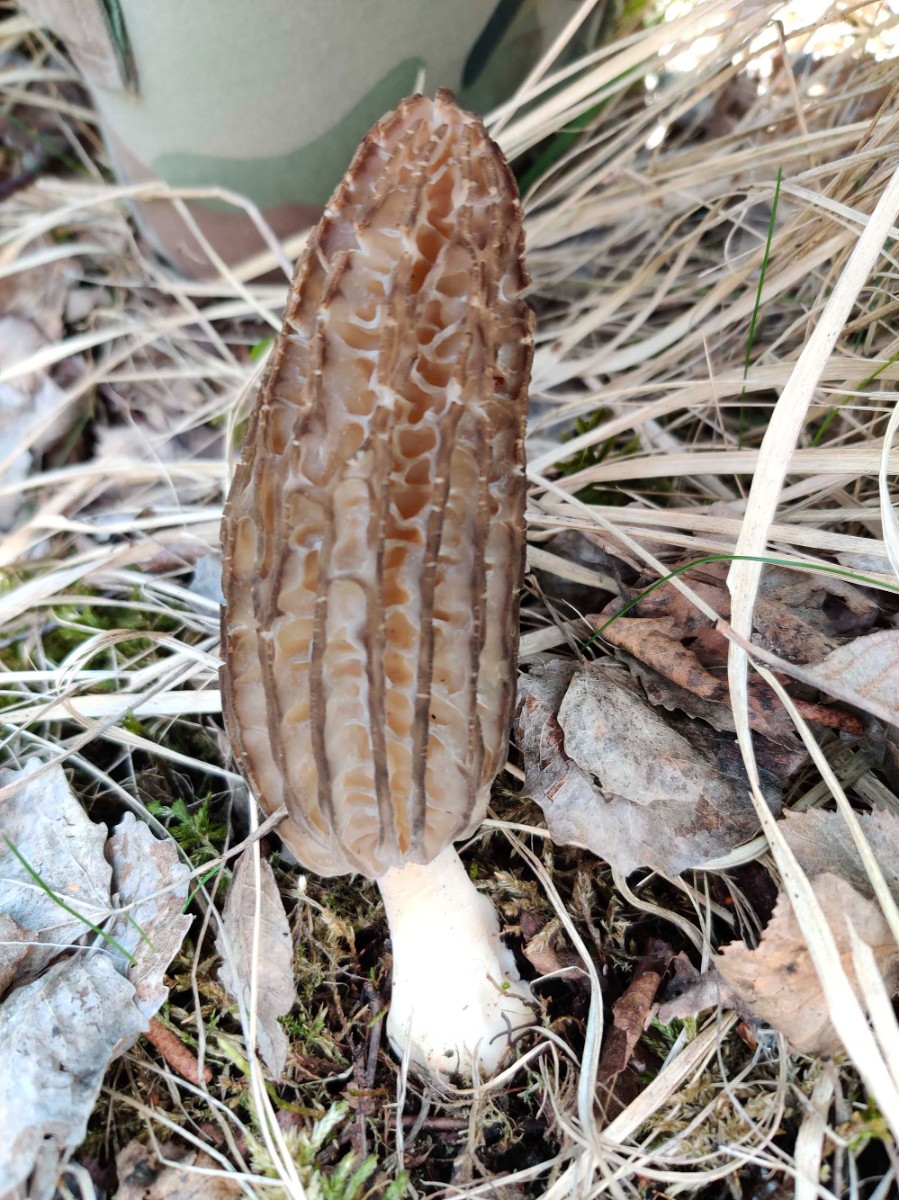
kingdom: Fungi
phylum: Ascomycota
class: Pezizomycetes
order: Pezizales
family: Morchellaceae
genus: Morchella
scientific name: Morchella esculenta
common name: Morel
